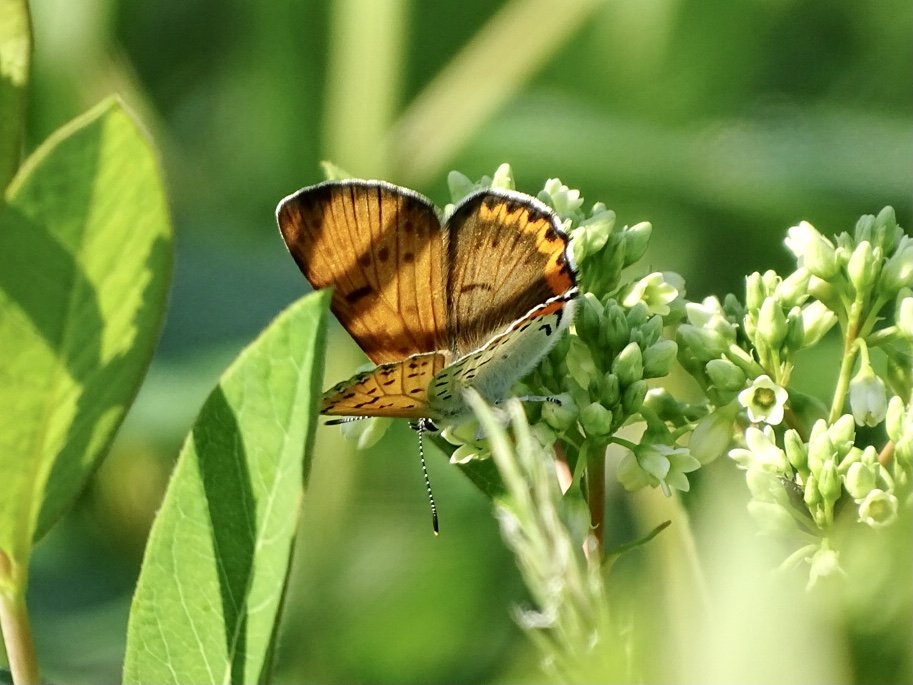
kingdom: Animalia
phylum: Arthropoda
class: Insecta
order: Lepidoptera
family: Sesiidae
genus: Sesia
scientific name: Sesia Lycaena hyllus
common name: Bronze Copper
